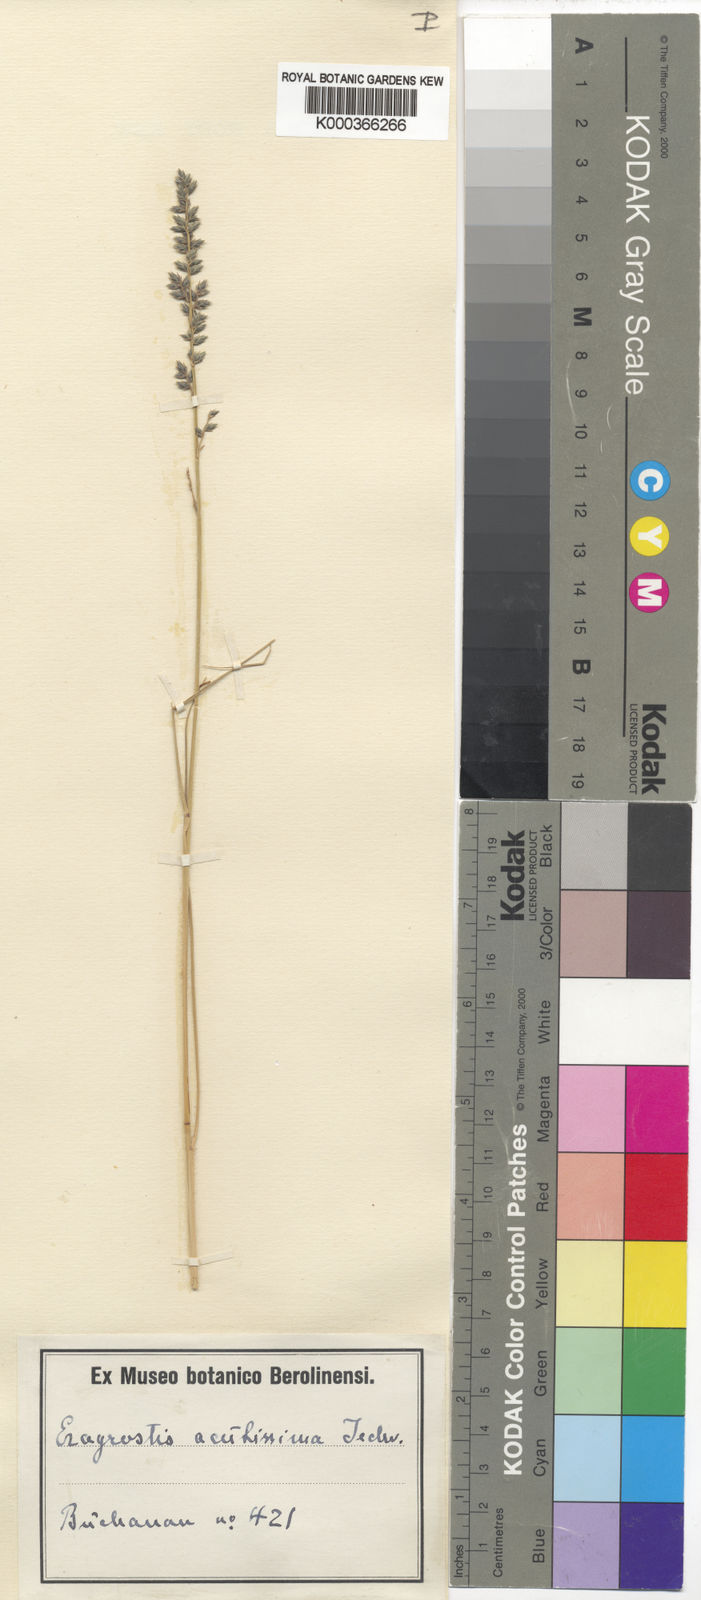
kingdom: Plantae
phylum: Tracheophyta
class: Liliopsida
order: Poales
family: Poaceae
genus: Eragrostis
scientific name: Eragrostis nindensis
